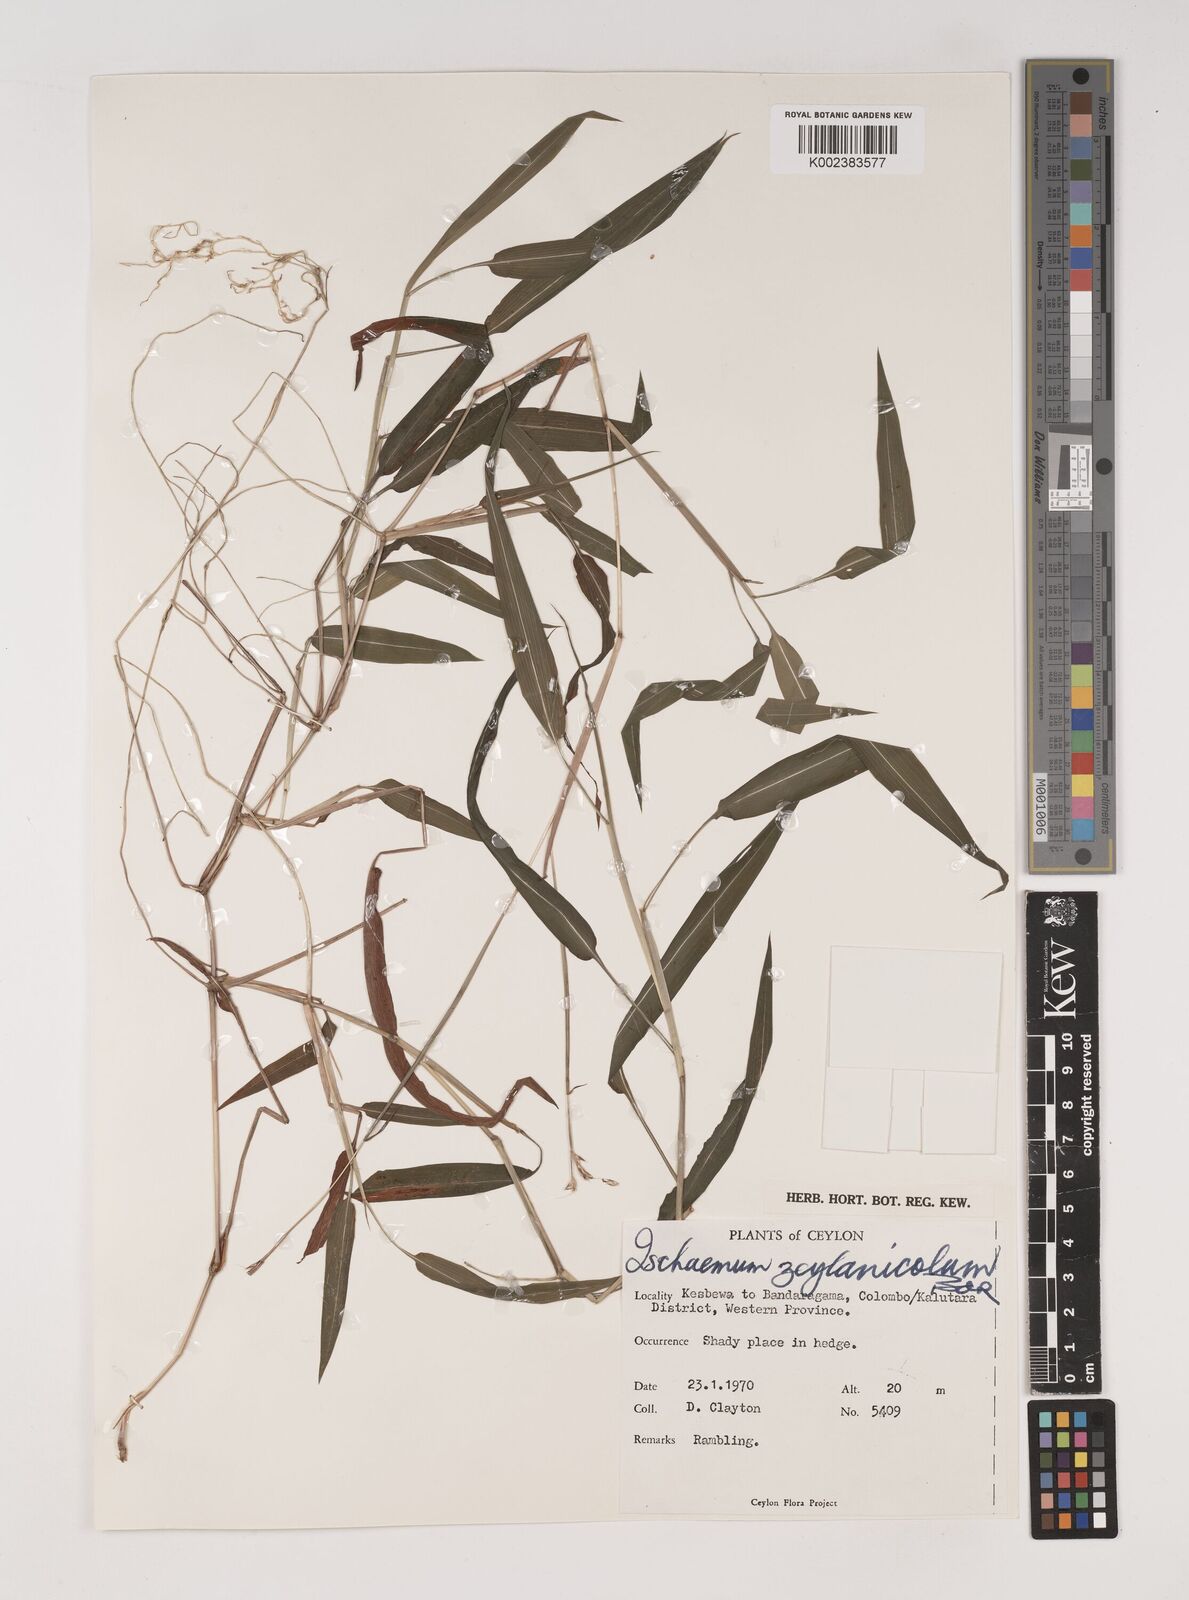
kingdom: Plantae
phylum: Tracheophyta
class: Liliopsida
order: Poales
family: Poaceae
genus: Ischaemum
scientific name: Ischaemum zeylanicola
